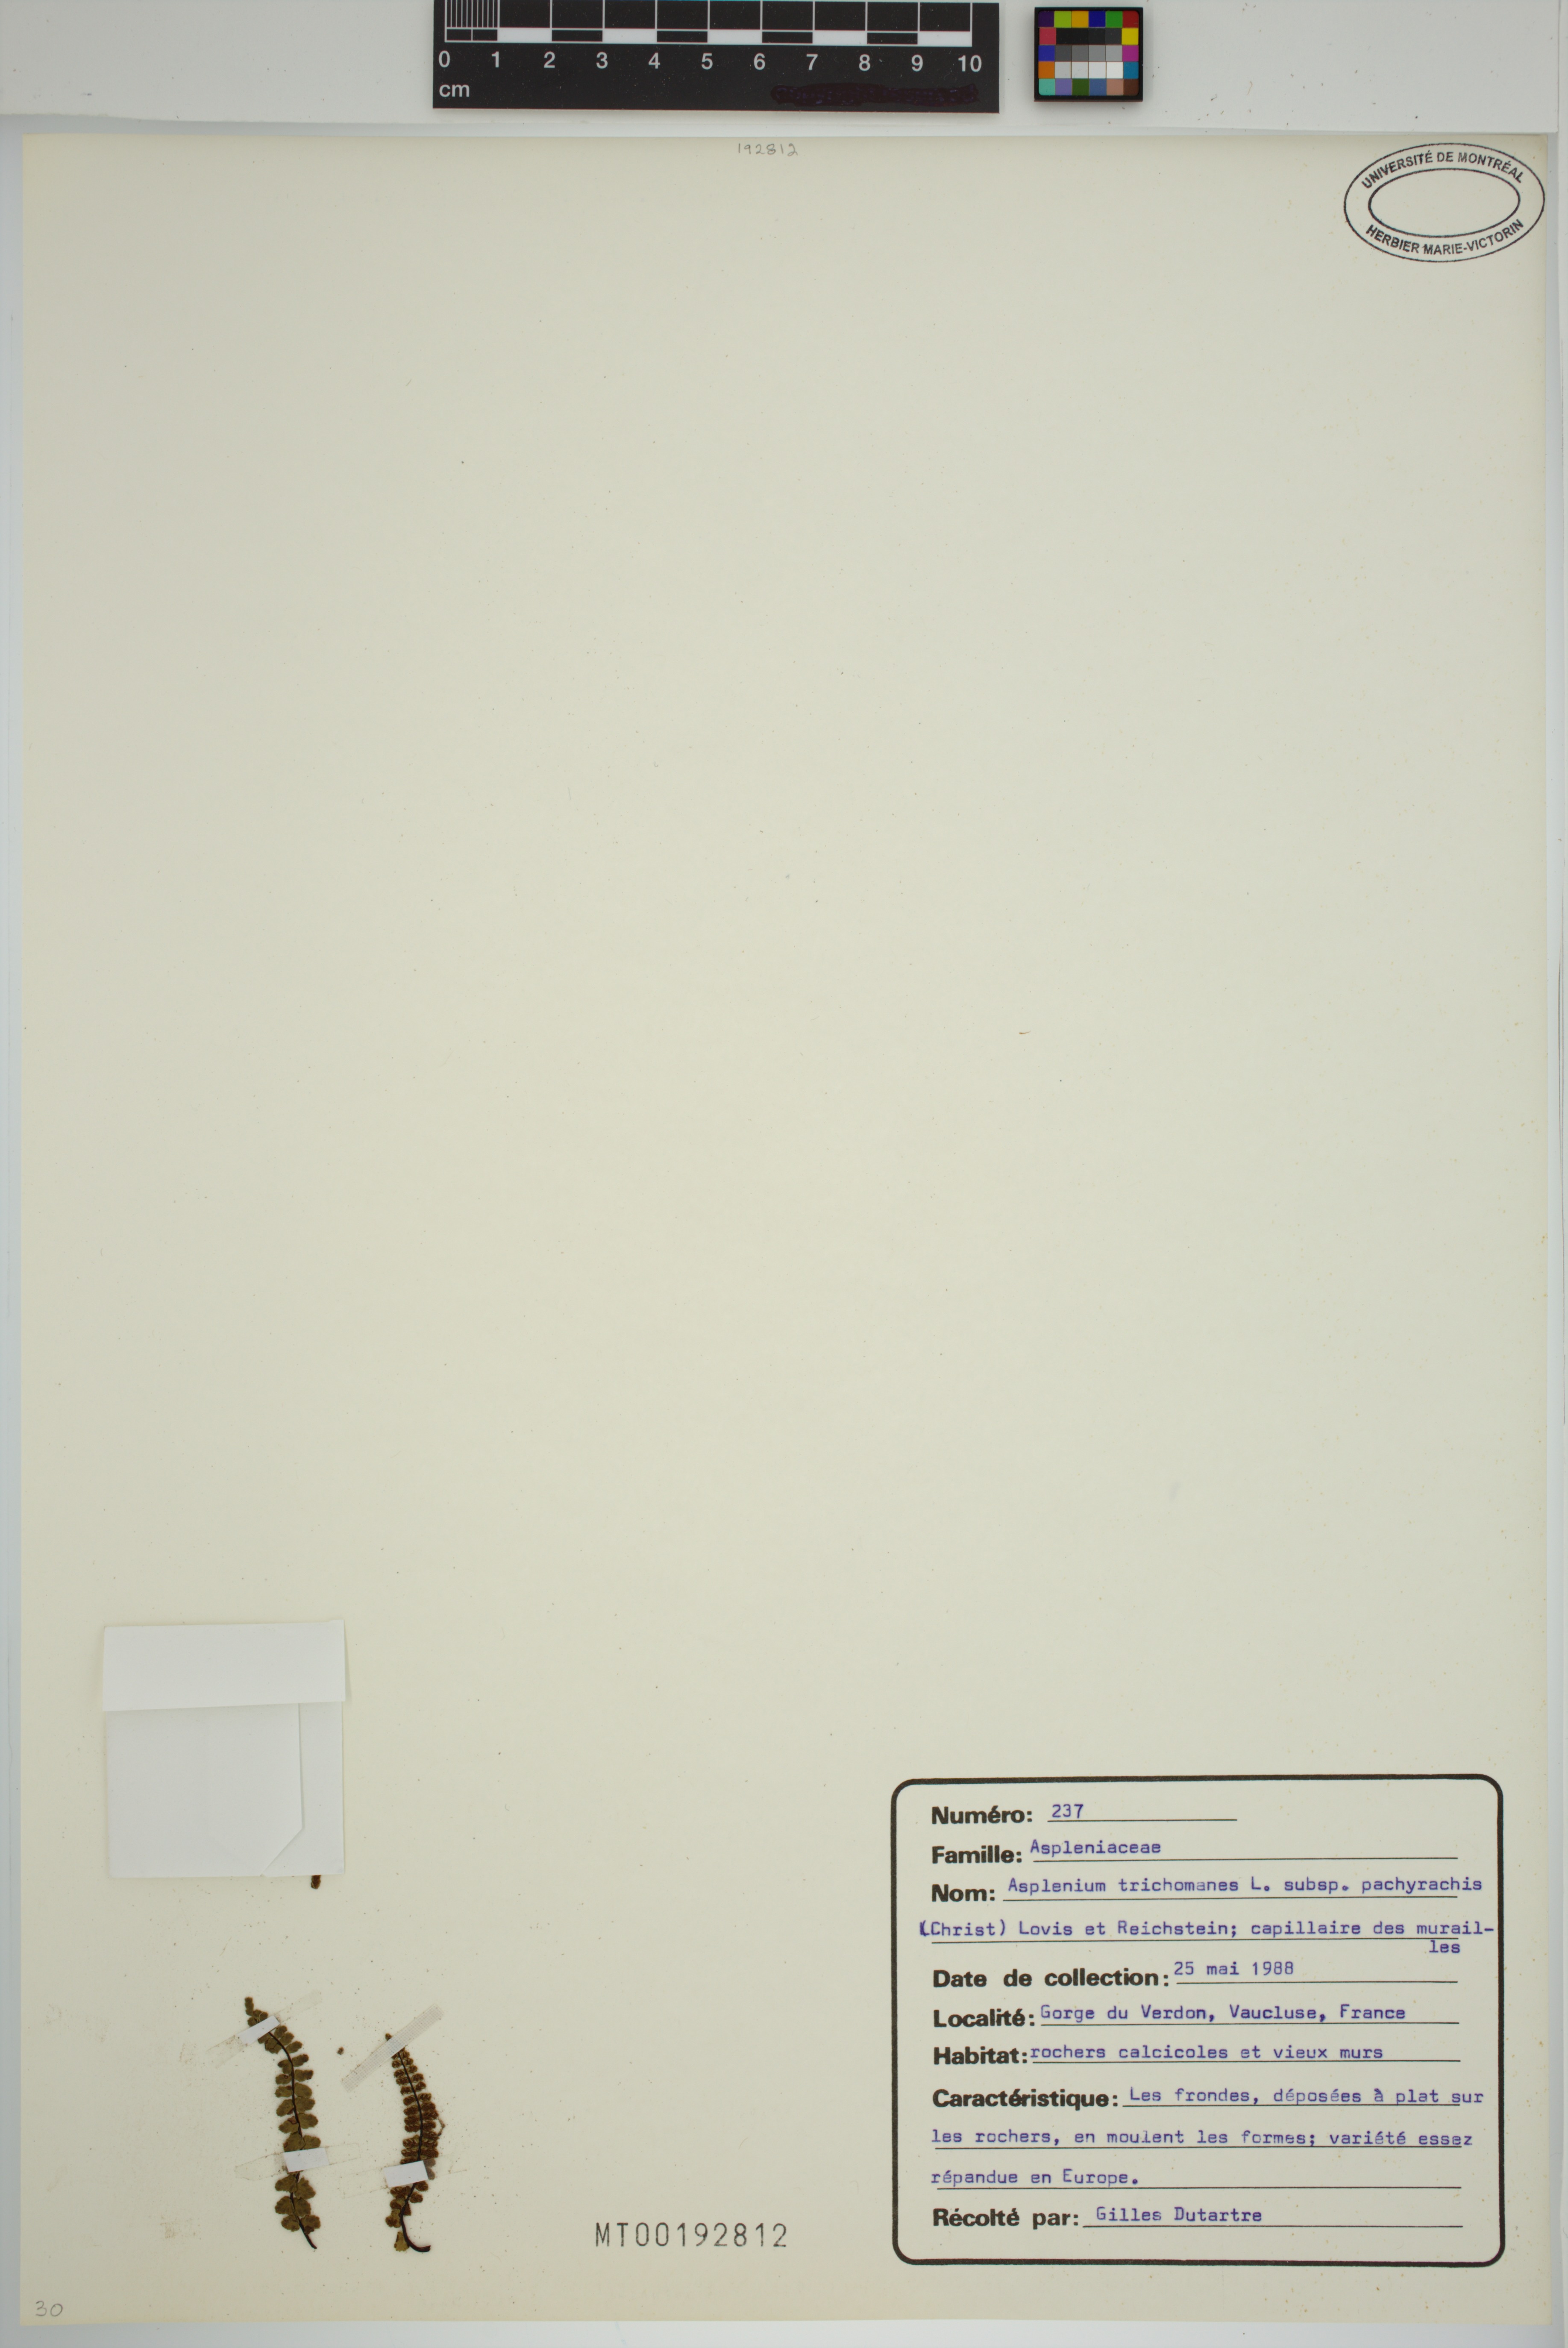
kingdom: Plantae
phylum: Tracheophyta
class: Polypodiopsida
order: Polypodiales
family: Aspleniaceae
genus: Asplenium
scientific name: Asplenium csikii
